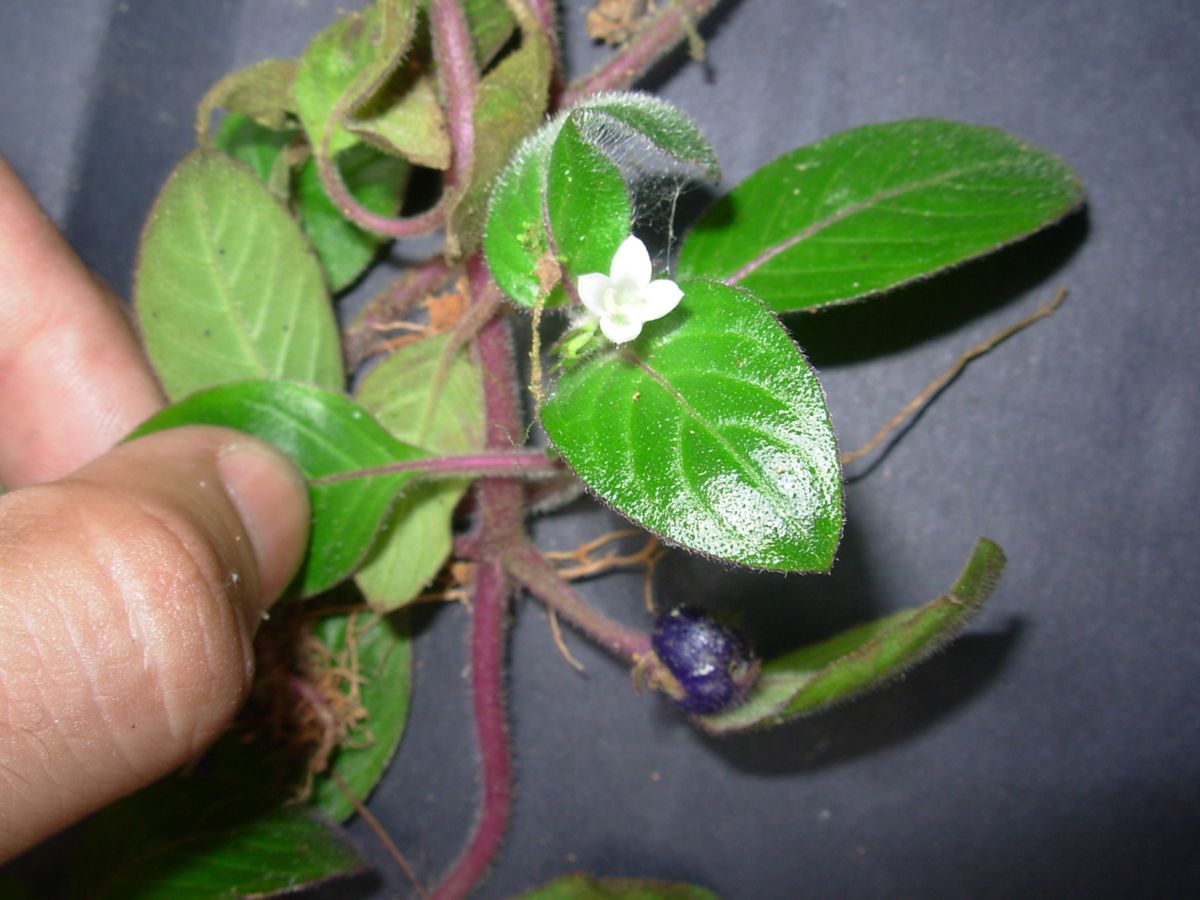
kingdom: Plantae
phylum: Tracheophyta
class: Magnoliopsida
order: Gentianales
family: Rubiaceae
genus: Coccocypselum
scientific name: Coccocypselum hirsutum
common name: Yerba de guava
